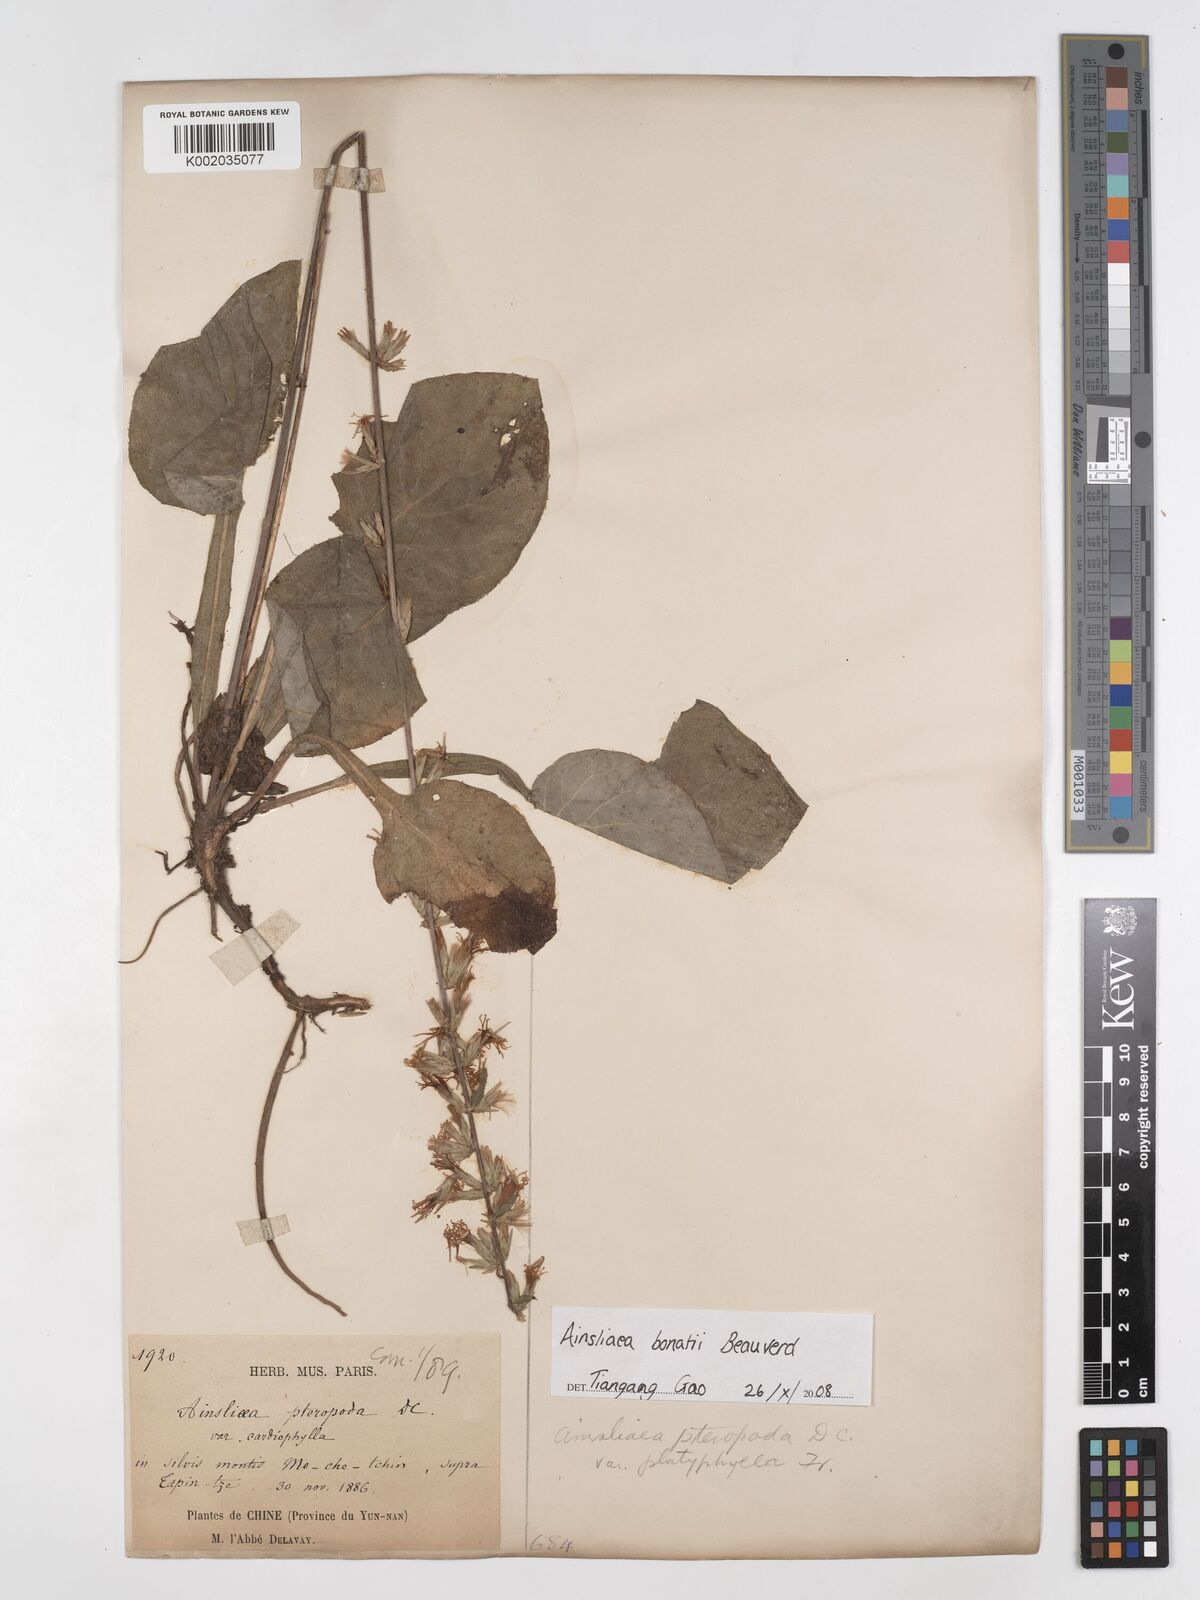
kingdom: Plantae
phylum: Tracheophyta
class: Magnoliopsida
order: Asterales
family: Asteraceae
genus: Ainsliaea
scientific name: Ainsliaea bonatii
